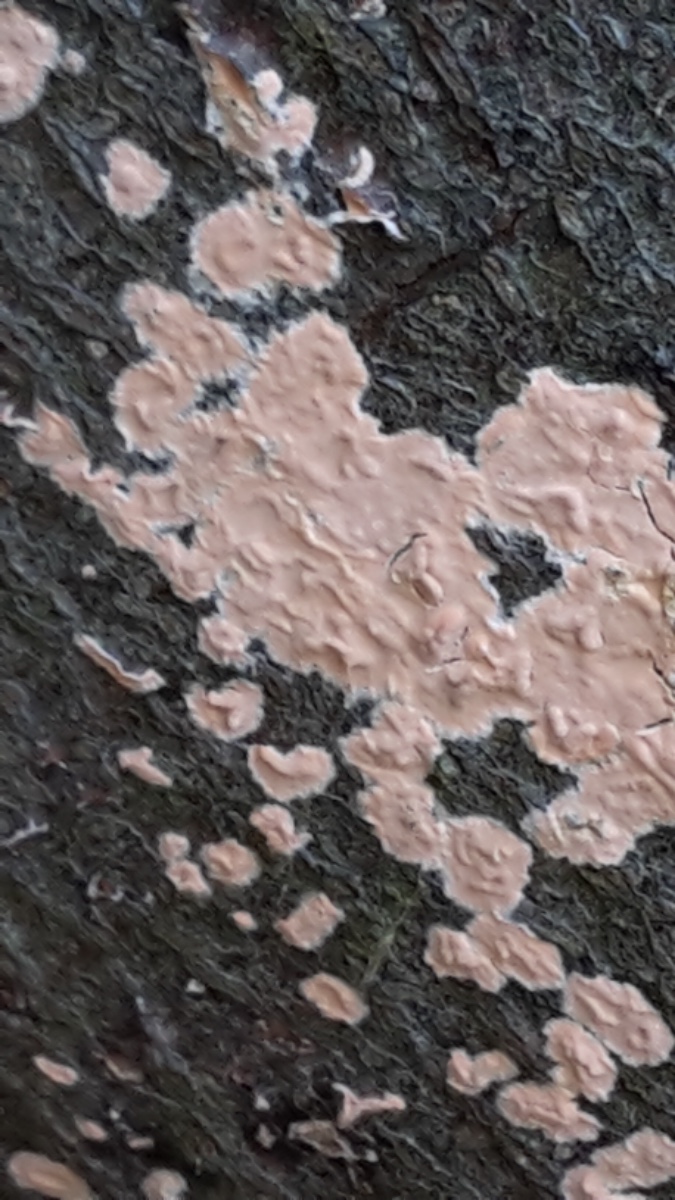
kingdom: Fungi
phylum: Basidiomycota
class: Agaricomycetes
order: Russulales
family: Peniophoraceae
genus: Peniophora
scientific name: Peniophora incarnata
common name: laksefarvet voksskind
